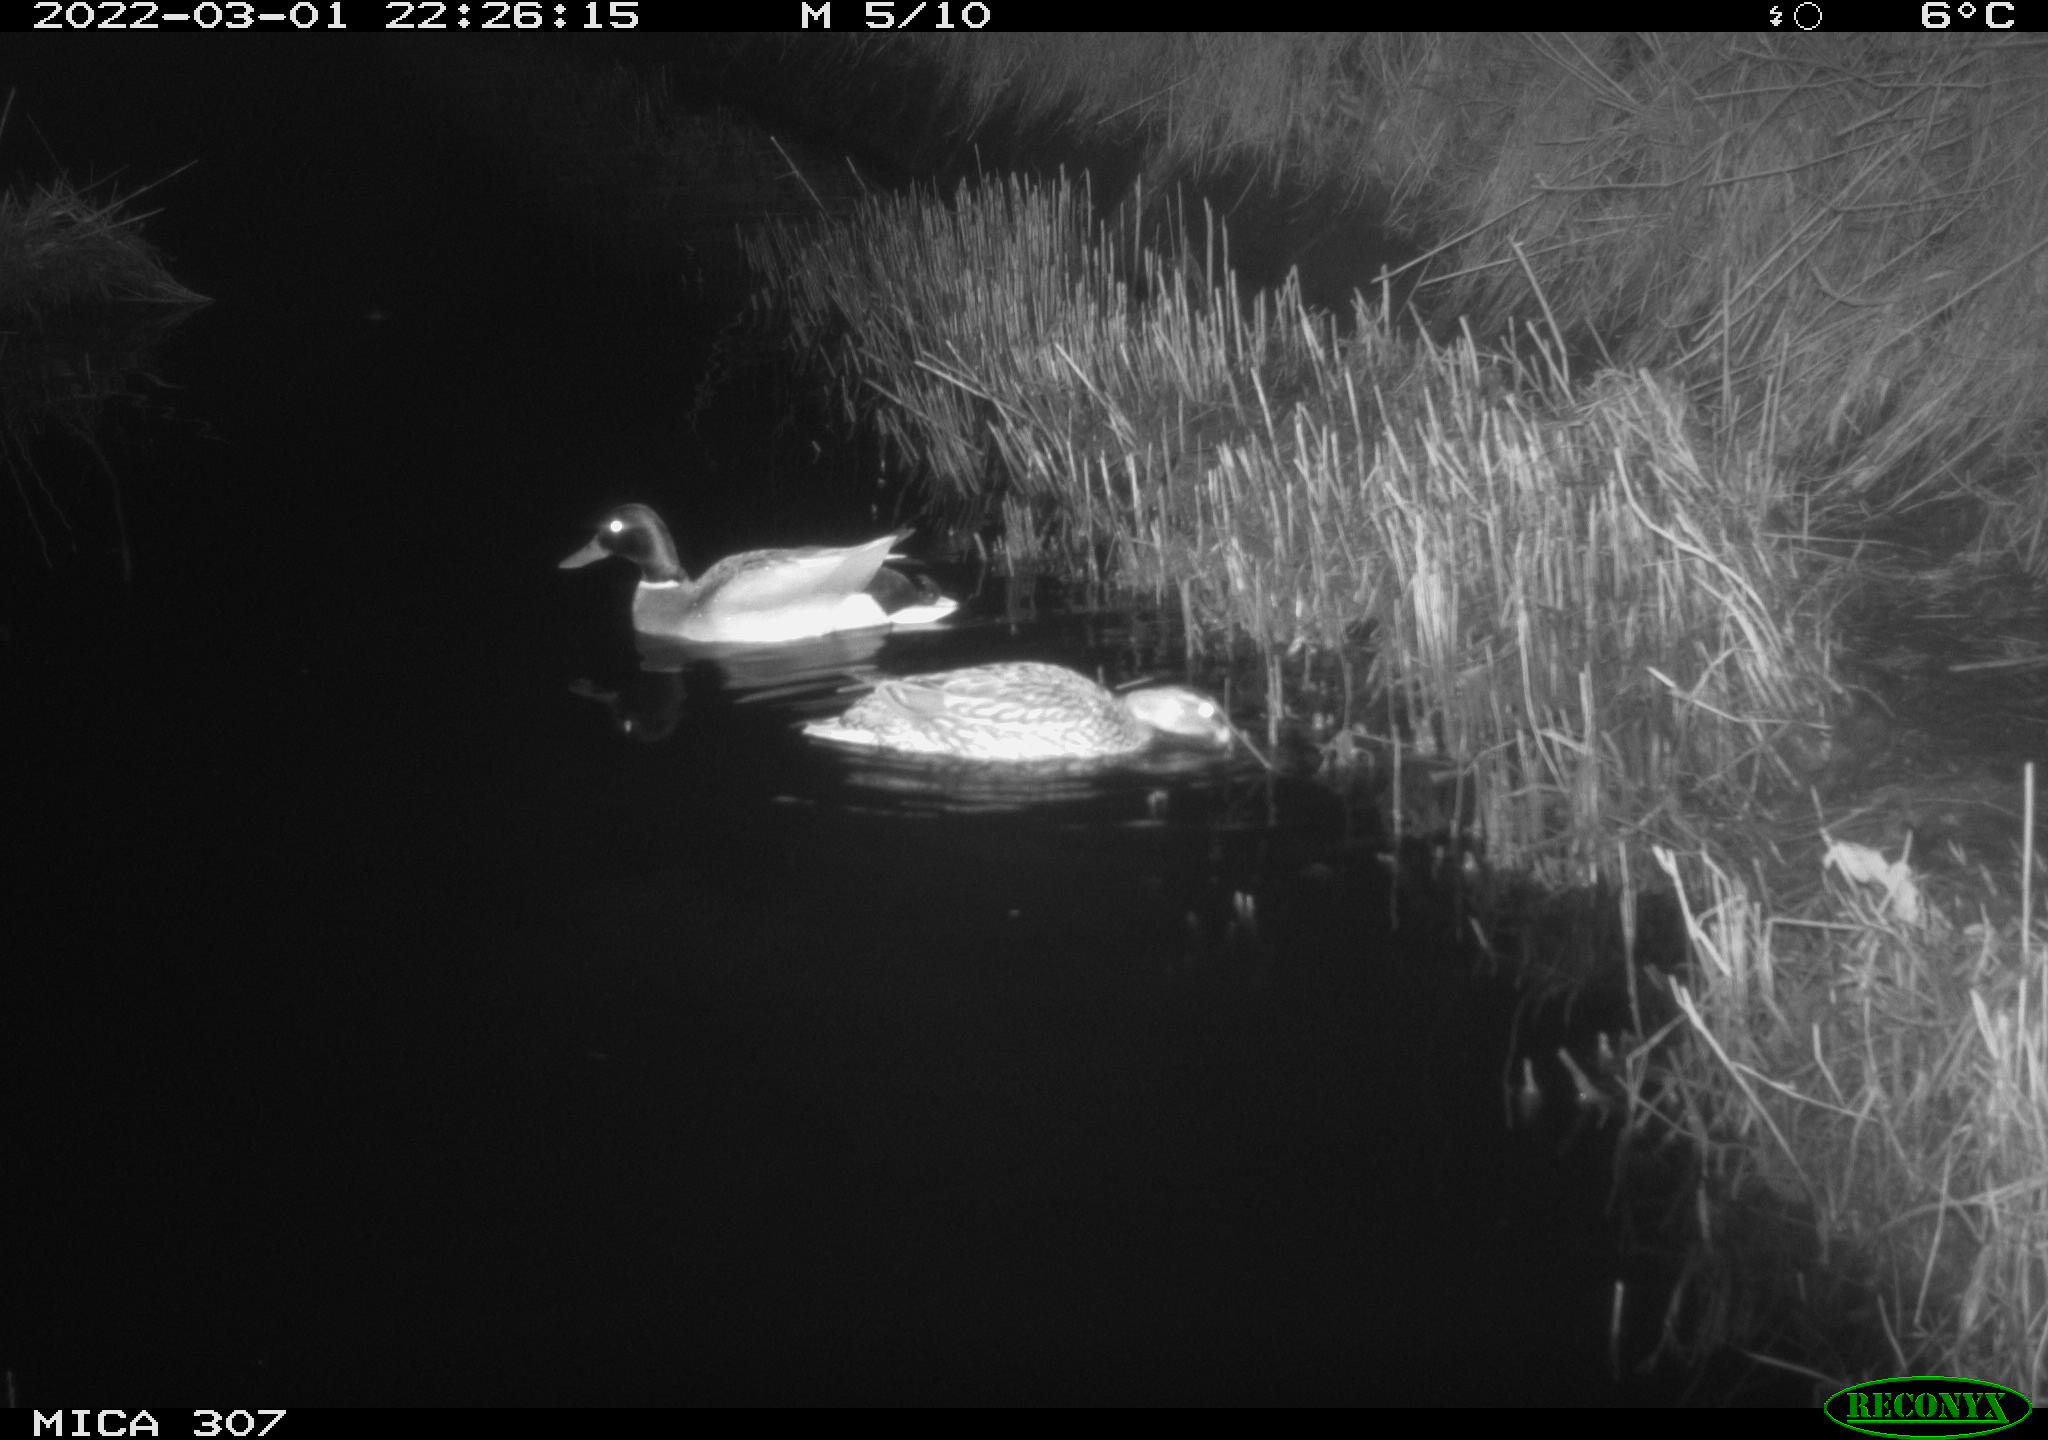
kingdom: Animalia
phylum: Chordata
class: Aves
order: Anseriformes
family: Anatidae
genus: Anas
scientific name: Anas platyrhynchos
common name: Mallard
